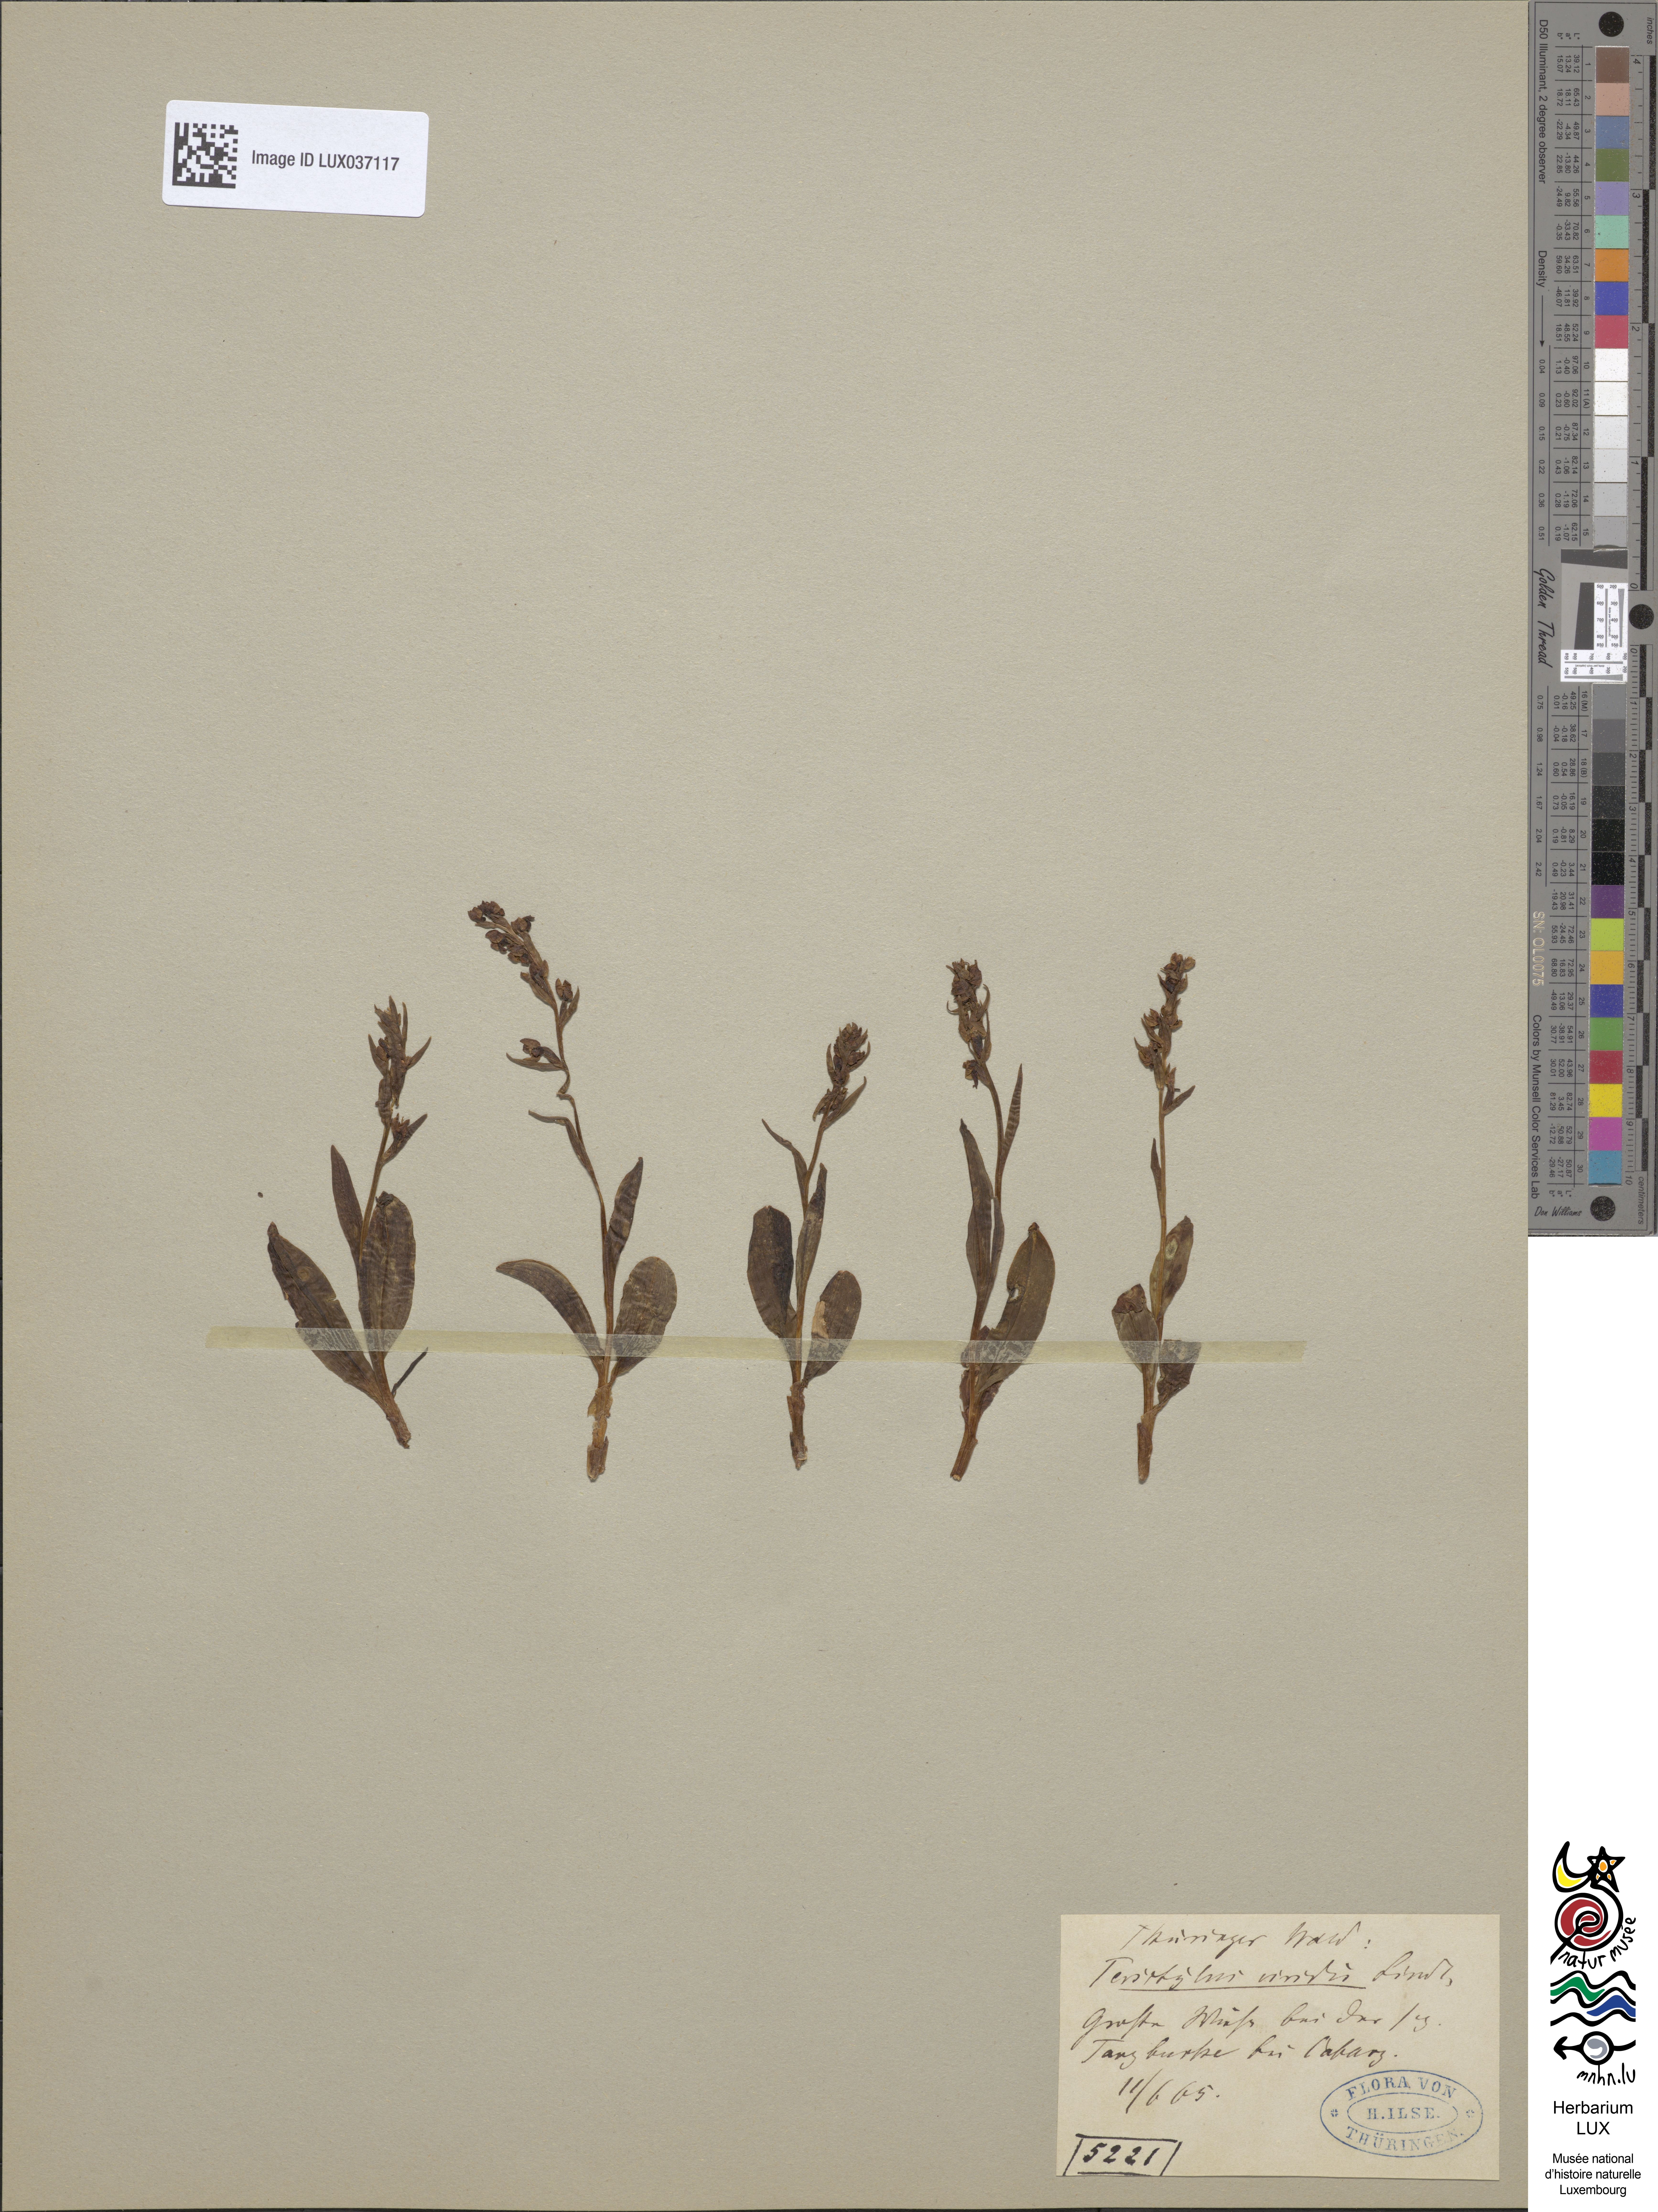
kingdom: Plantae
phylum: Tracheophyta
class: Liliopsida
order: Asparagales
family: Orchidaceae
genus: Dactylorhiza
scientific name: Dactylorhiza viridis
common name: Longbract frog orchid
